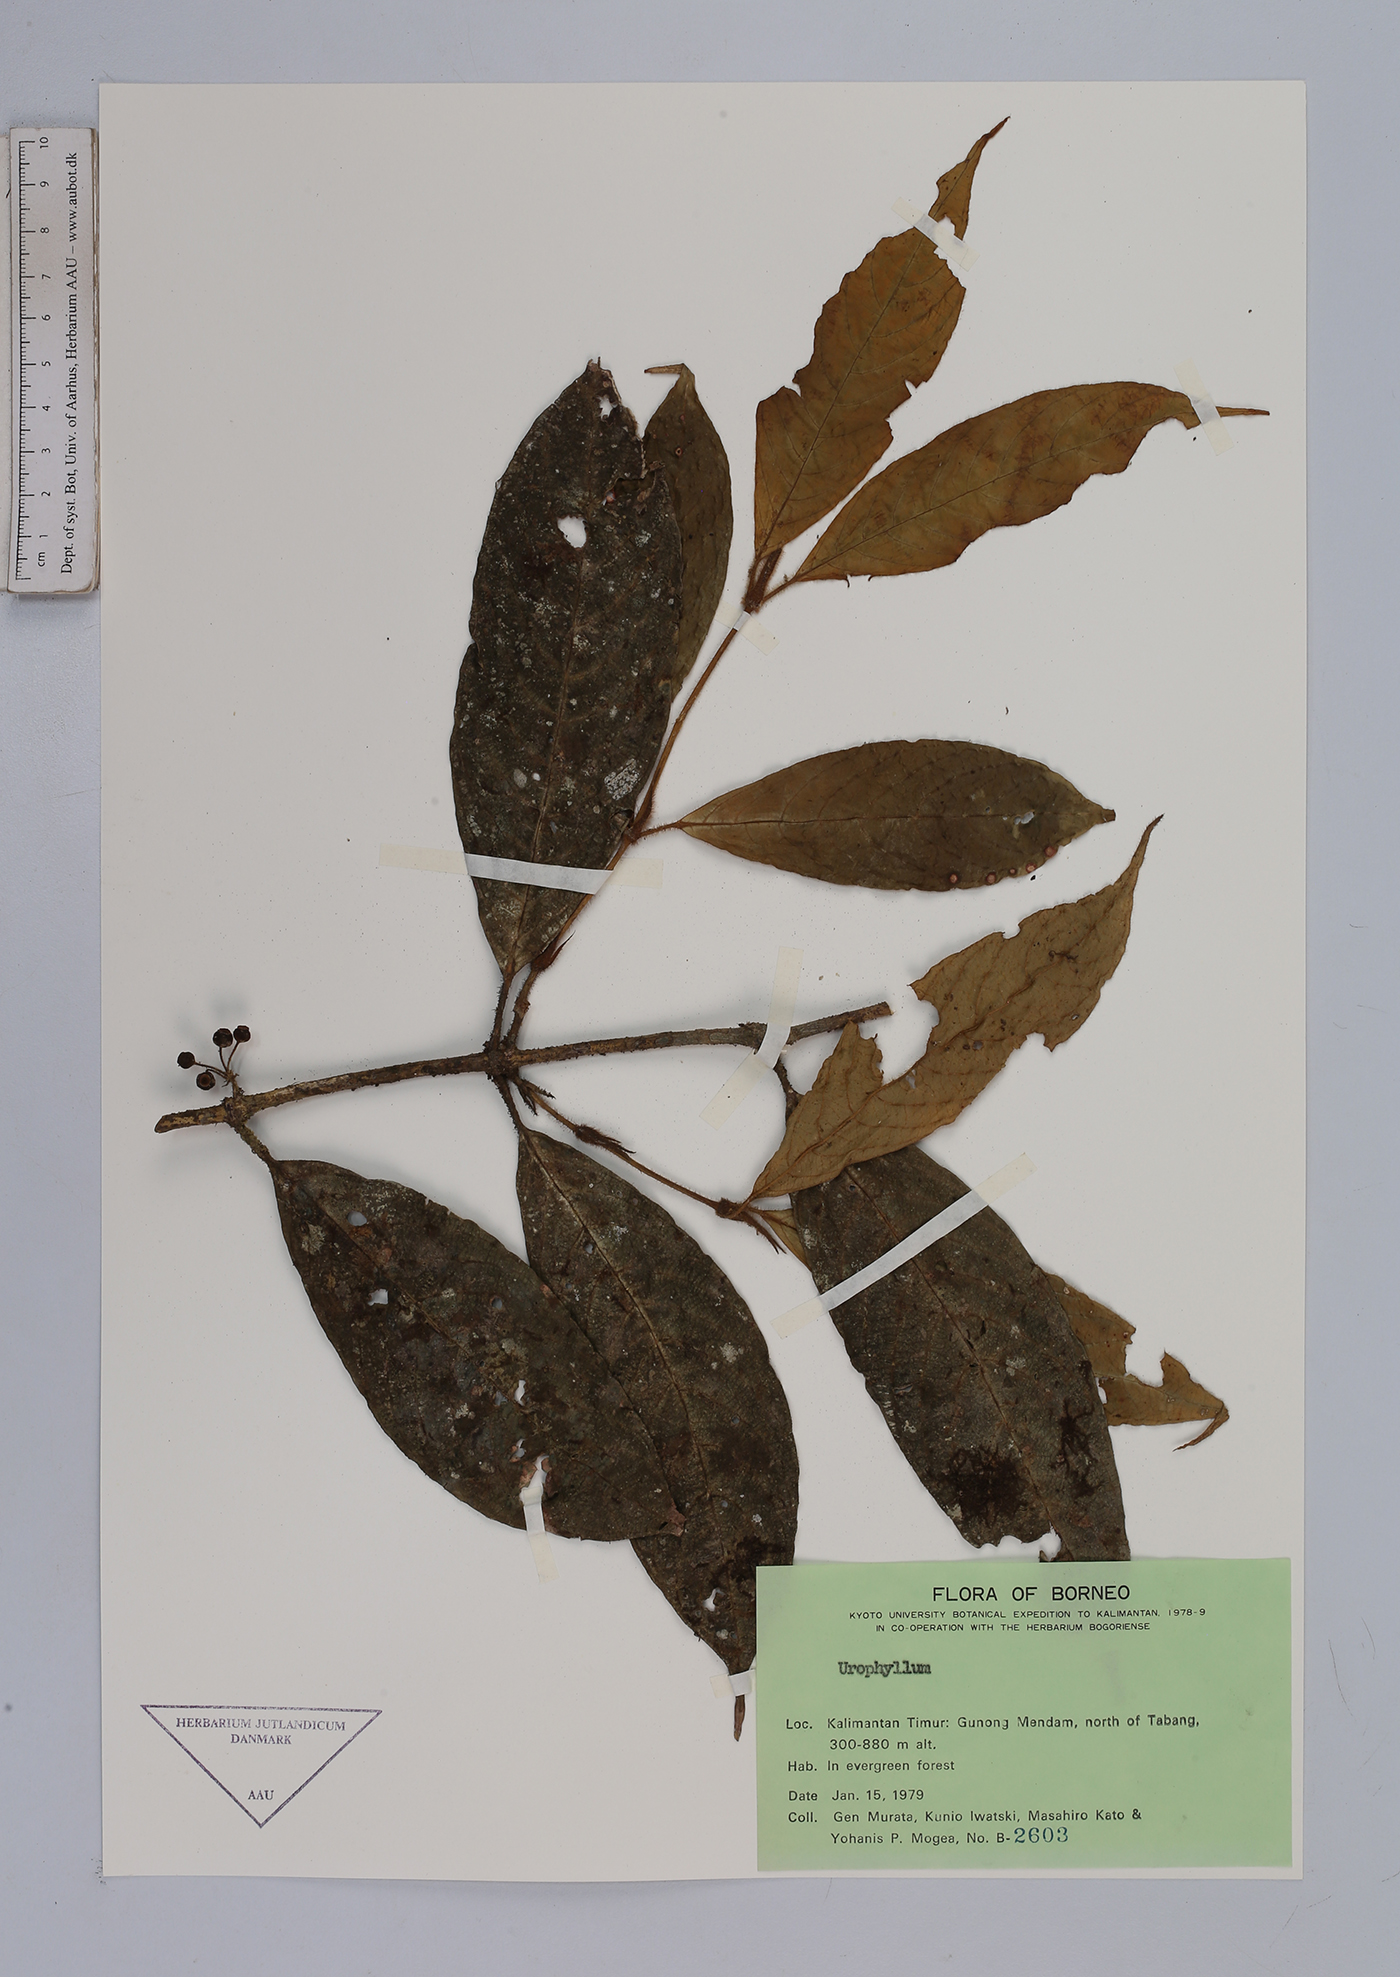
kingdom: Plantae
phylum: Tracheophyta
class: Magnoliopsida
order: Gentianales
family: Rubiaceae
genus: Urophyllum
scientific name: Urophyllum
